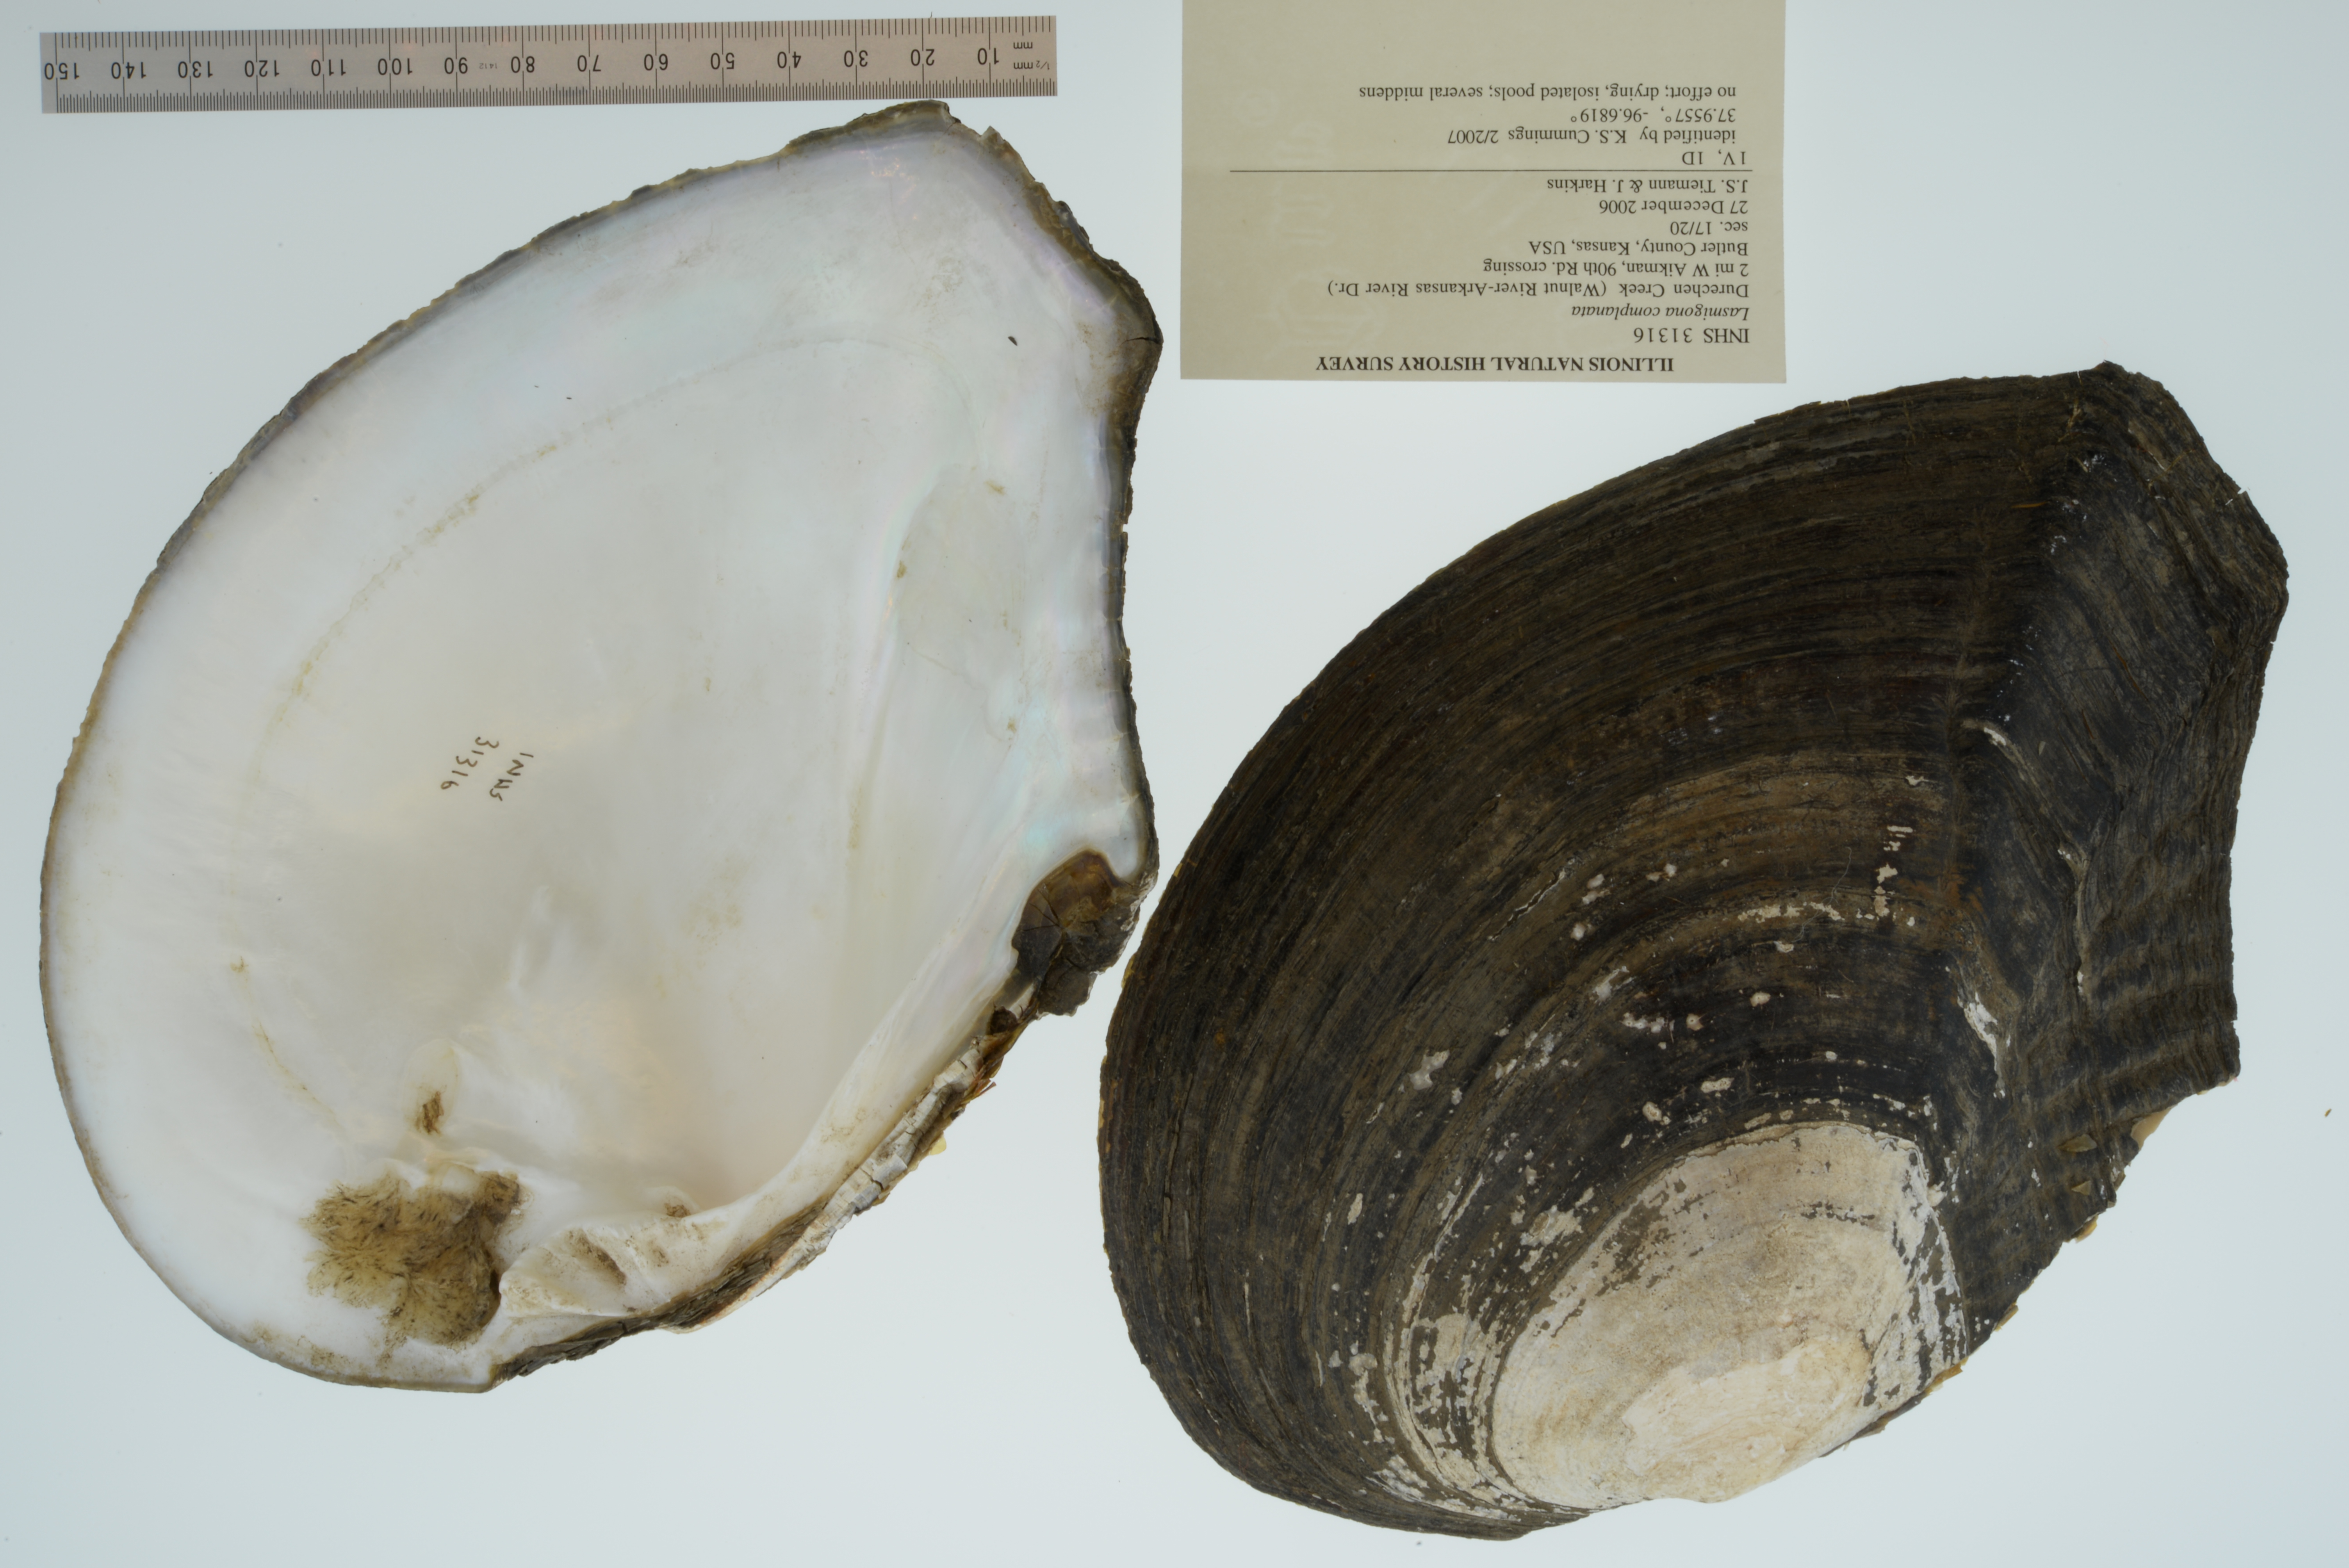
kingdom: Animalia
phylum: Mollusca
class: Bivalvia
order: Unionida
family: Unionidae
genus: Lasmigona
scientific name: Lasmigona complanata
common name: White heelsplitter
